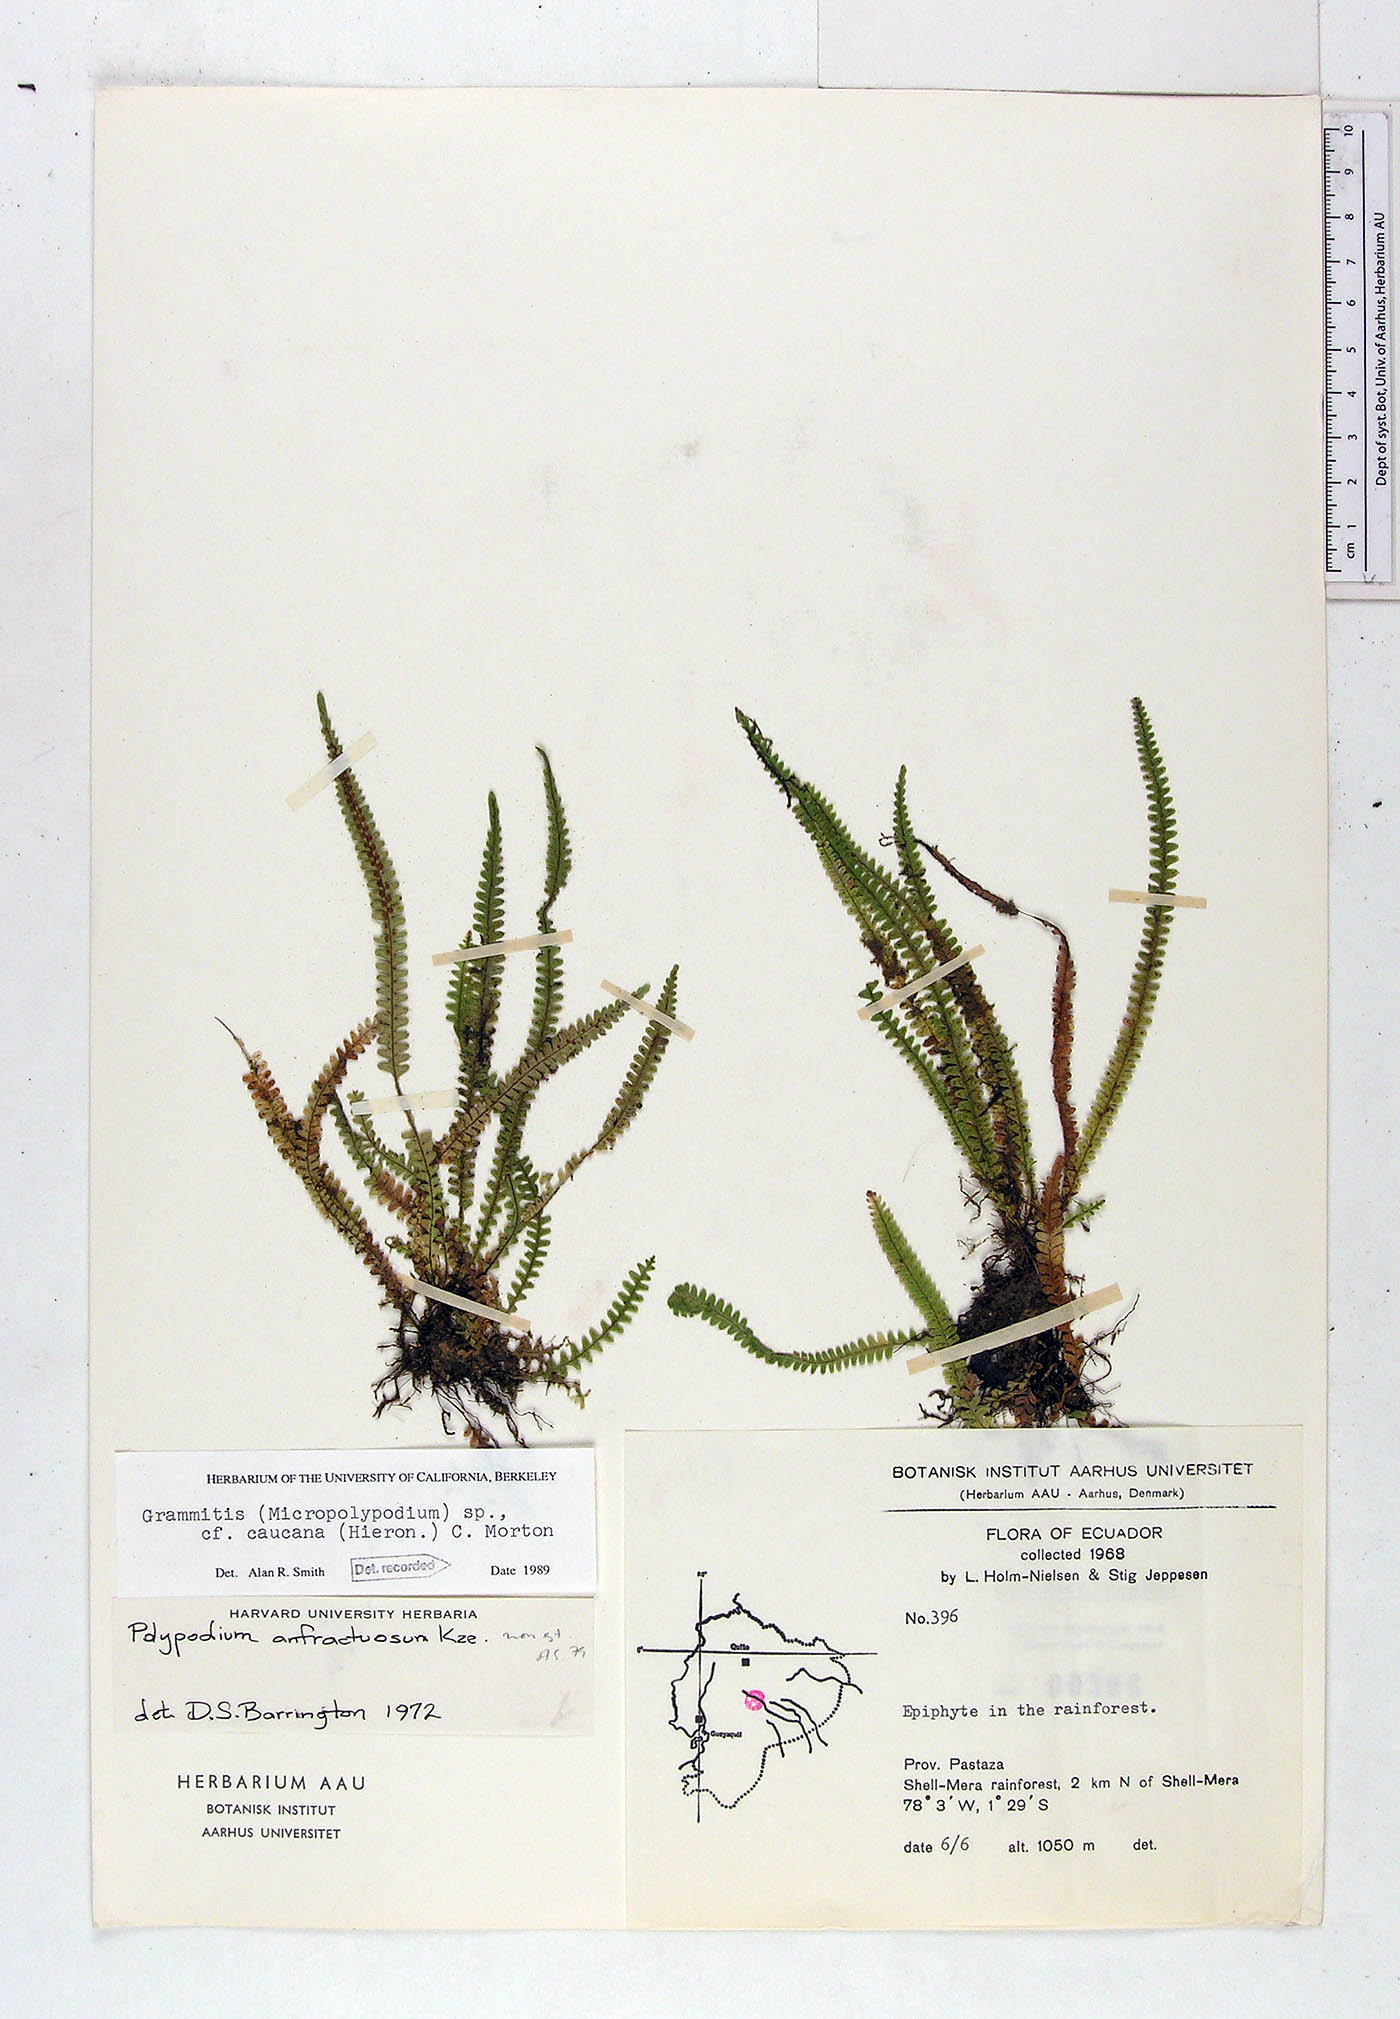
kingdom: Plantae
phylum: Tracheophyta
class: Polypodiopsida
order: Polypodiales
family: Polypodiaceae
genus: Moranopteris
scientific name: Moranopteris caucana
